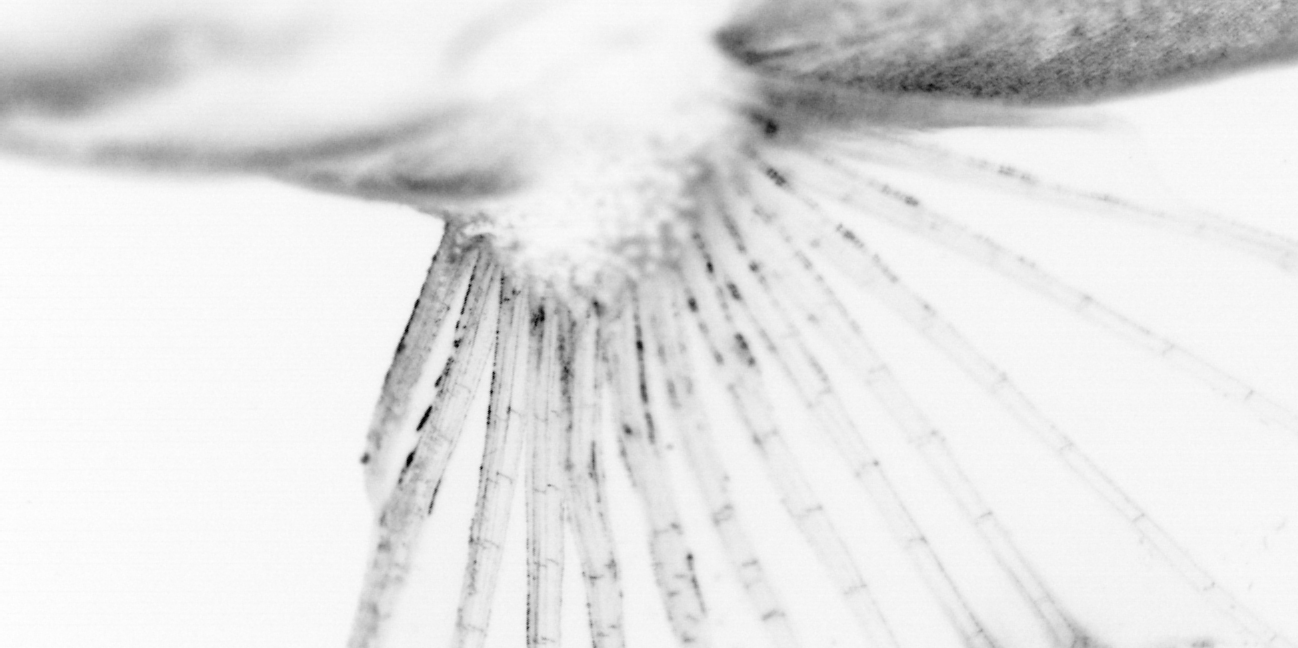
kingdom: Animalia
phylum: Chordata
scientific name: Chordata
